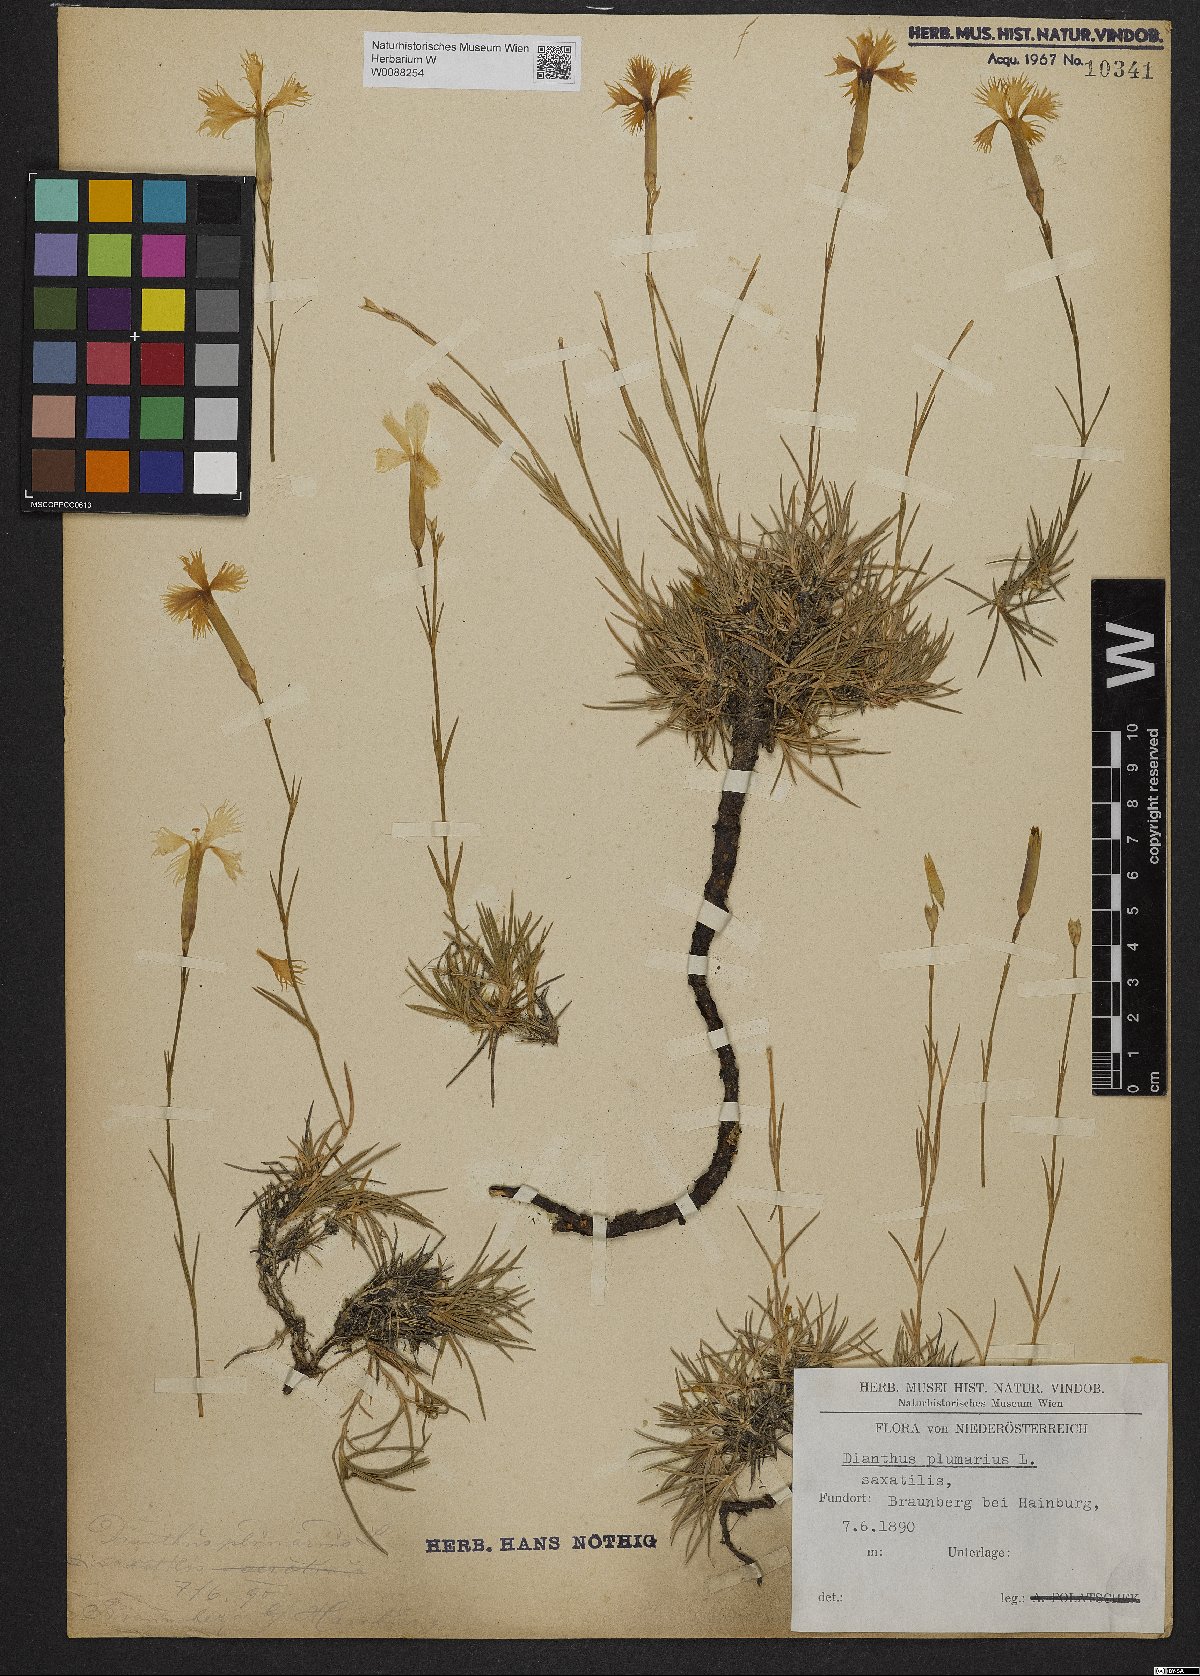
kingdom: Plantae
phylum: Tracheophyta
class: Magnoliopsida
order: Caryophyllales
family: Caryophyllaceae
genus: Dianthus
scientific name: Dianthus plumarius
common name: Pink
